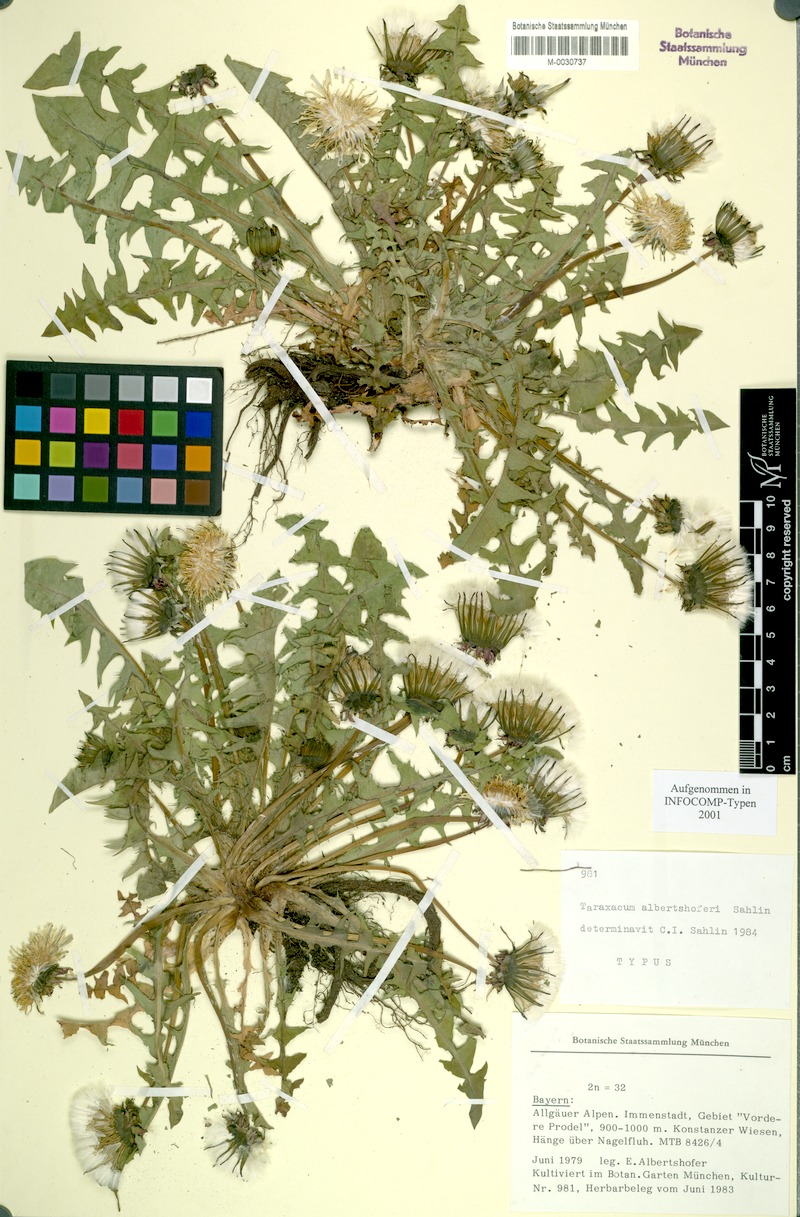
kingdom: Plantae
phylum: Tracheophyta
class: Magnoliopsida
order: Asterales
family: Asteraceae
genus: Taraxacum
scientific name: Taraxacum albertshoferi
